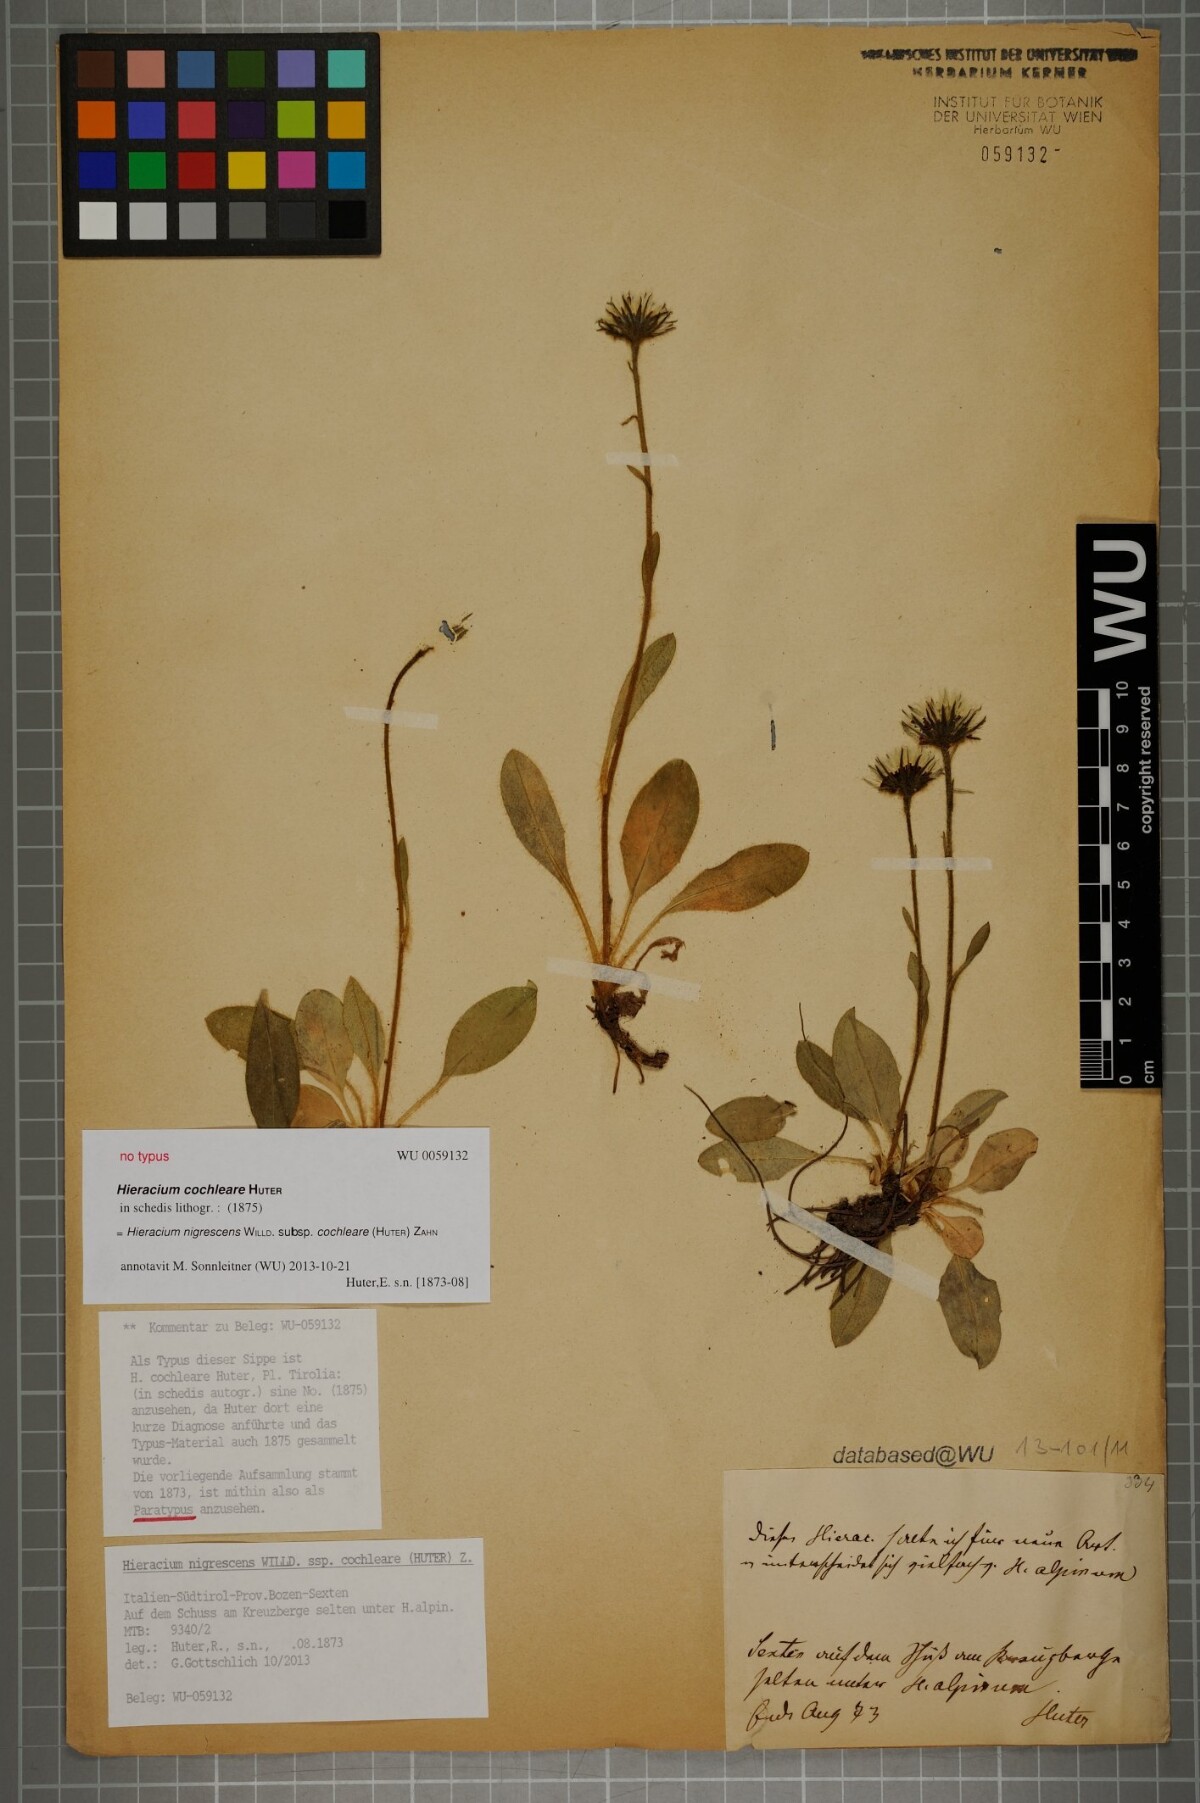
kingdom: Plantae
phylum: Tracheophyta
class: Magnoliopsida
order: Asterales
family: Asteraceae
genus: Hieracium
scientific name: Hieracium nigrescens
